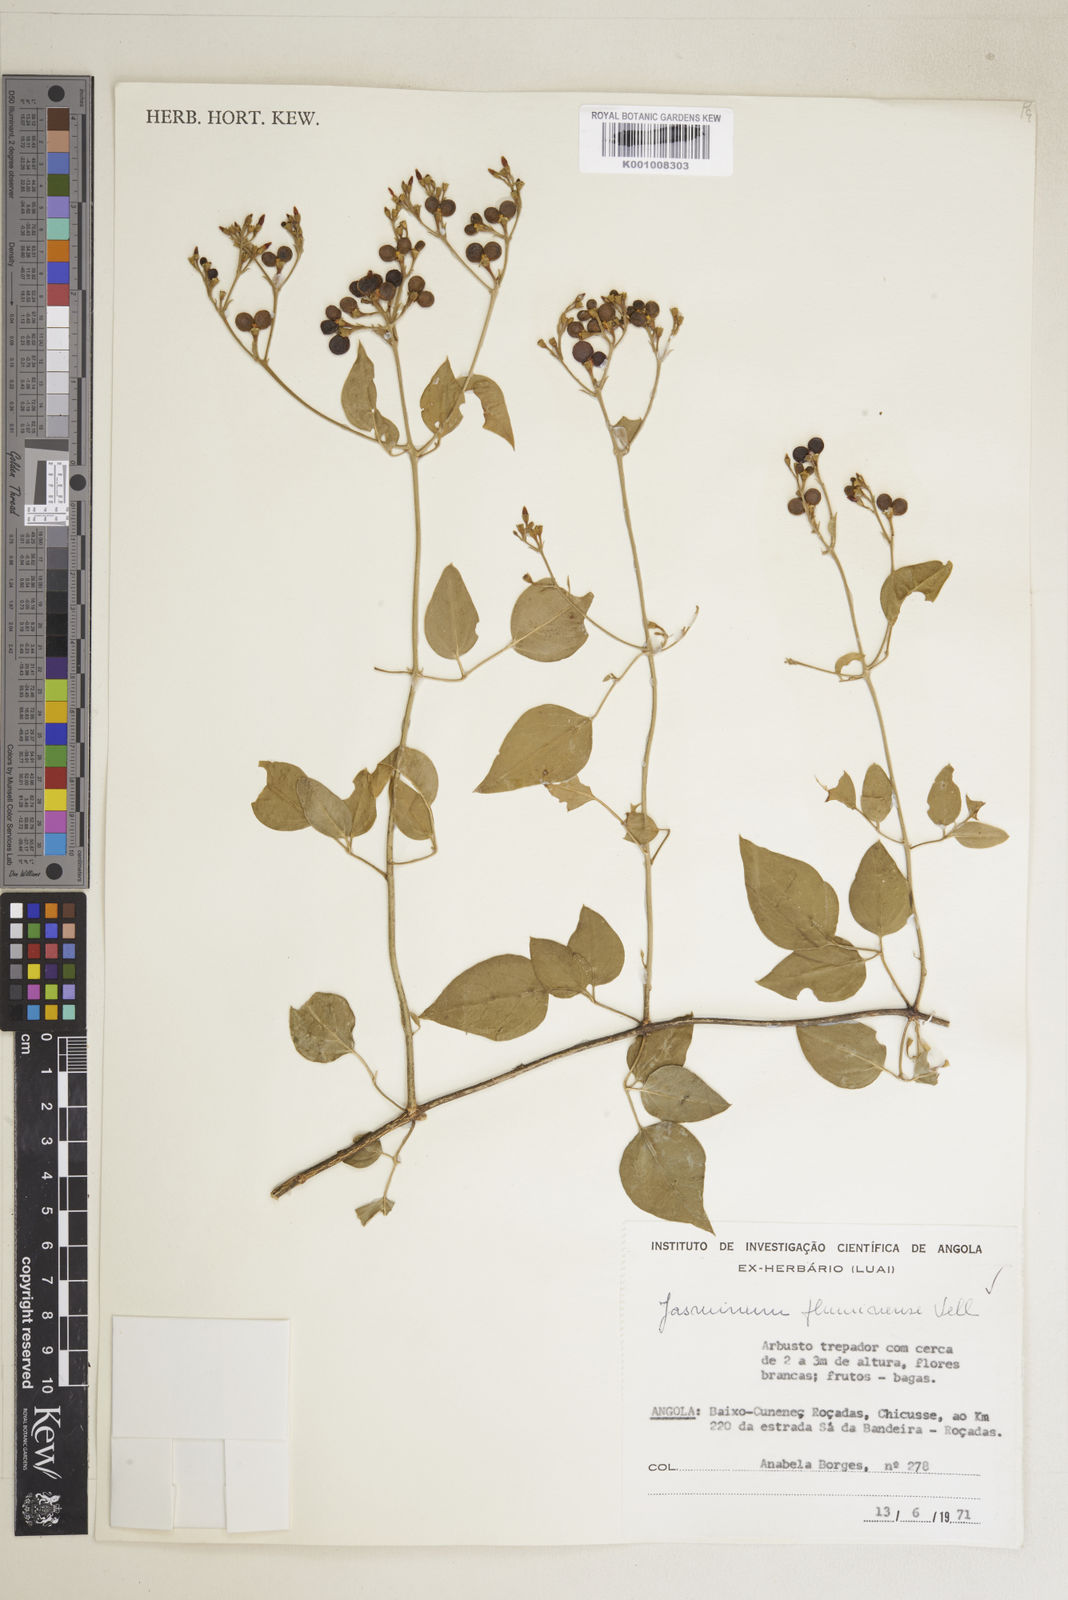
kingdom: Plantae
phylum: Tracheophyta
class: Magnoliopsida
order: Lamiales
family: Oleaceae
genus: Jasminum
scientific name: Jasminum fluminense
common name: Brazilian jasmine
